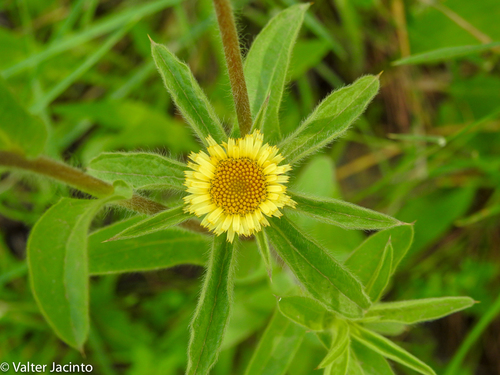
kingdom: Plantae
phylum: Tracheophyta
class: Magnoliopsida
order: Asterales
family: Asteraceae
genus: Pallenis
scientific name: Pallenis spinosa
